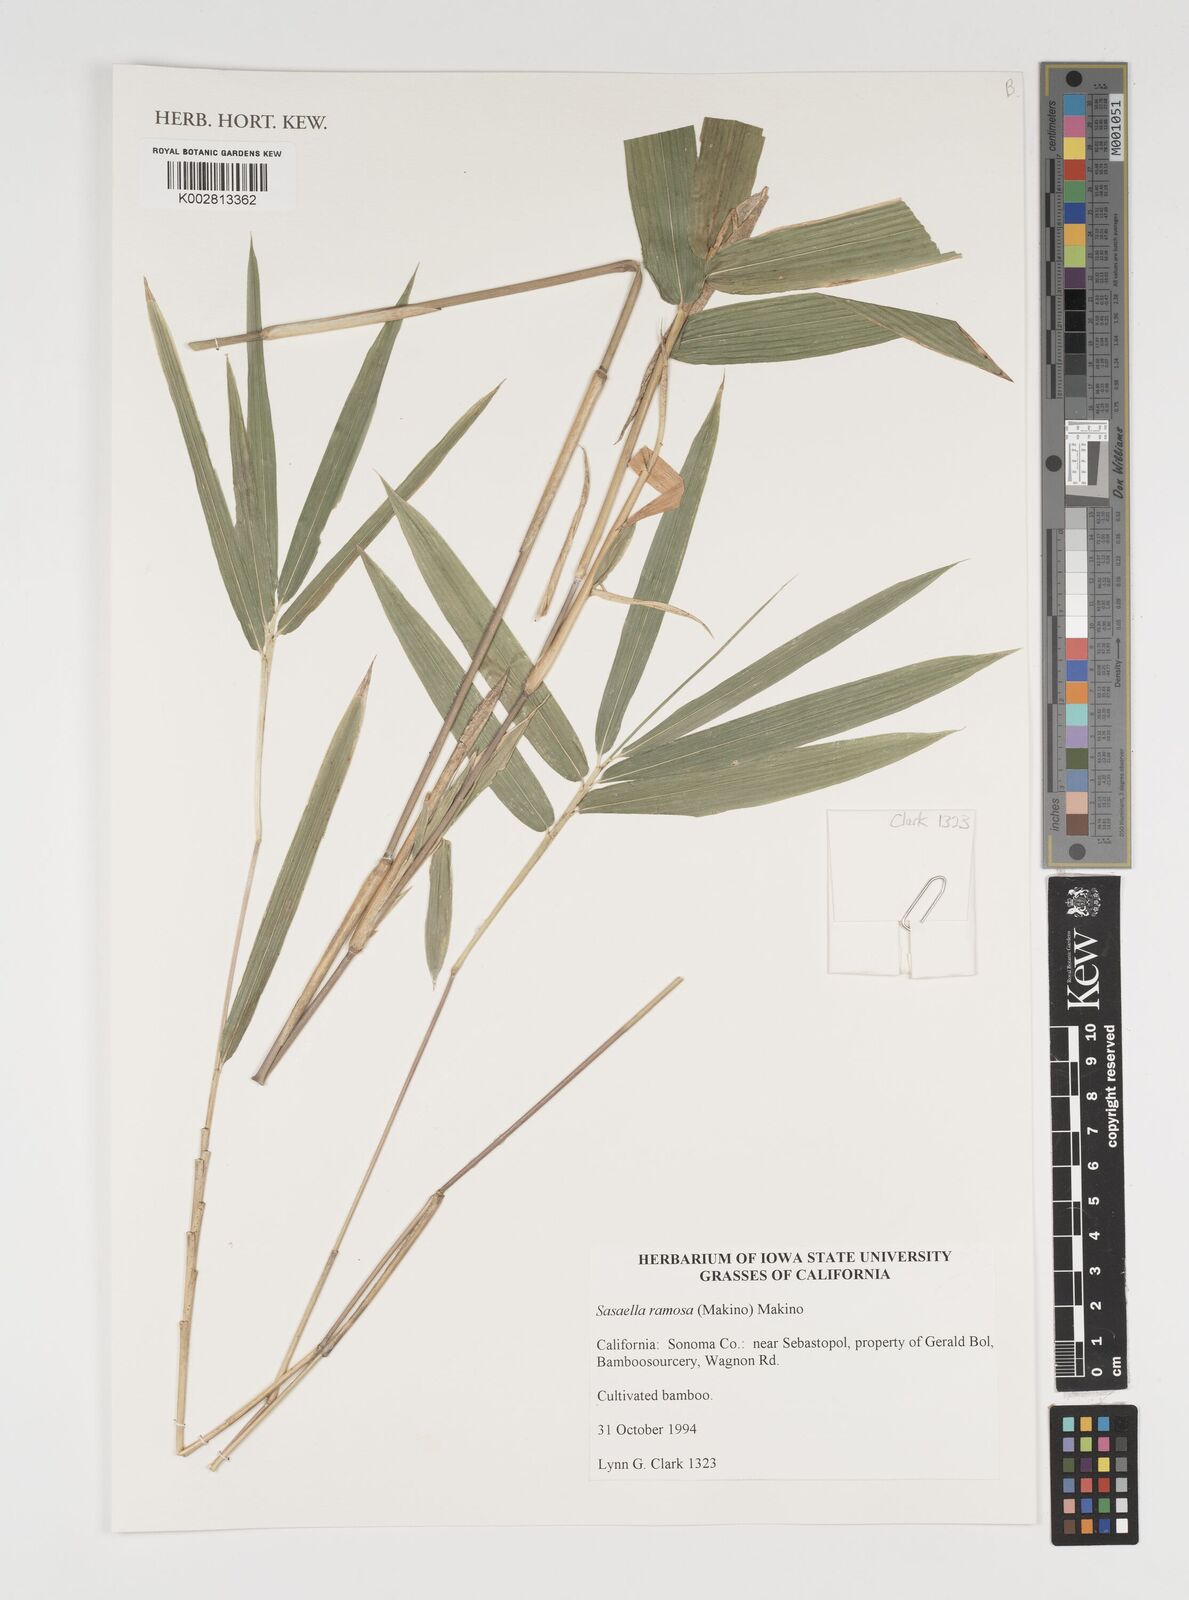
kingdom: Plantae
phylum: Tracheophyta
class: Liliopsida
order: Poales
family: Poaceae
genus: Sasaella
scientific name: Sasaella ramosa
